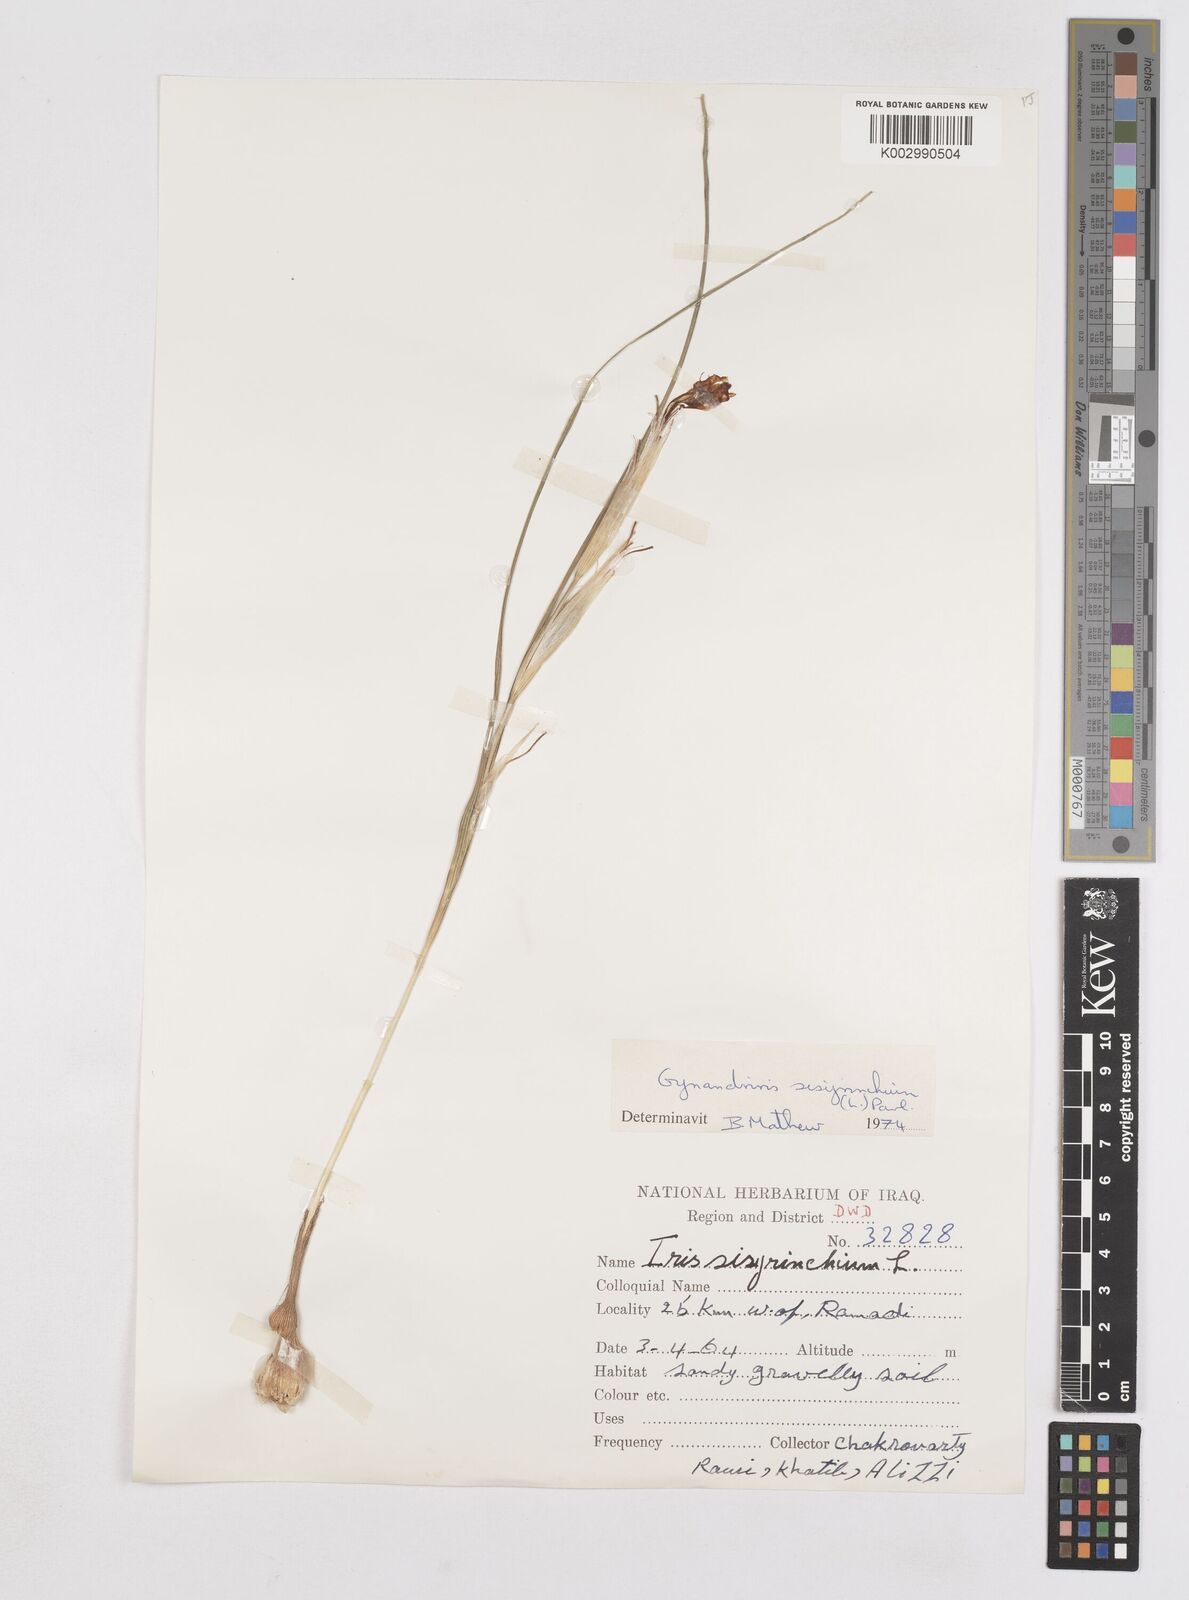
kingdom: Plantae
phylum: Tracheophyta
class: Liliopsida
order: Asparagales
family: Iridaceae
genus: Moraea
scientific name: Moraea sisyrinchium
